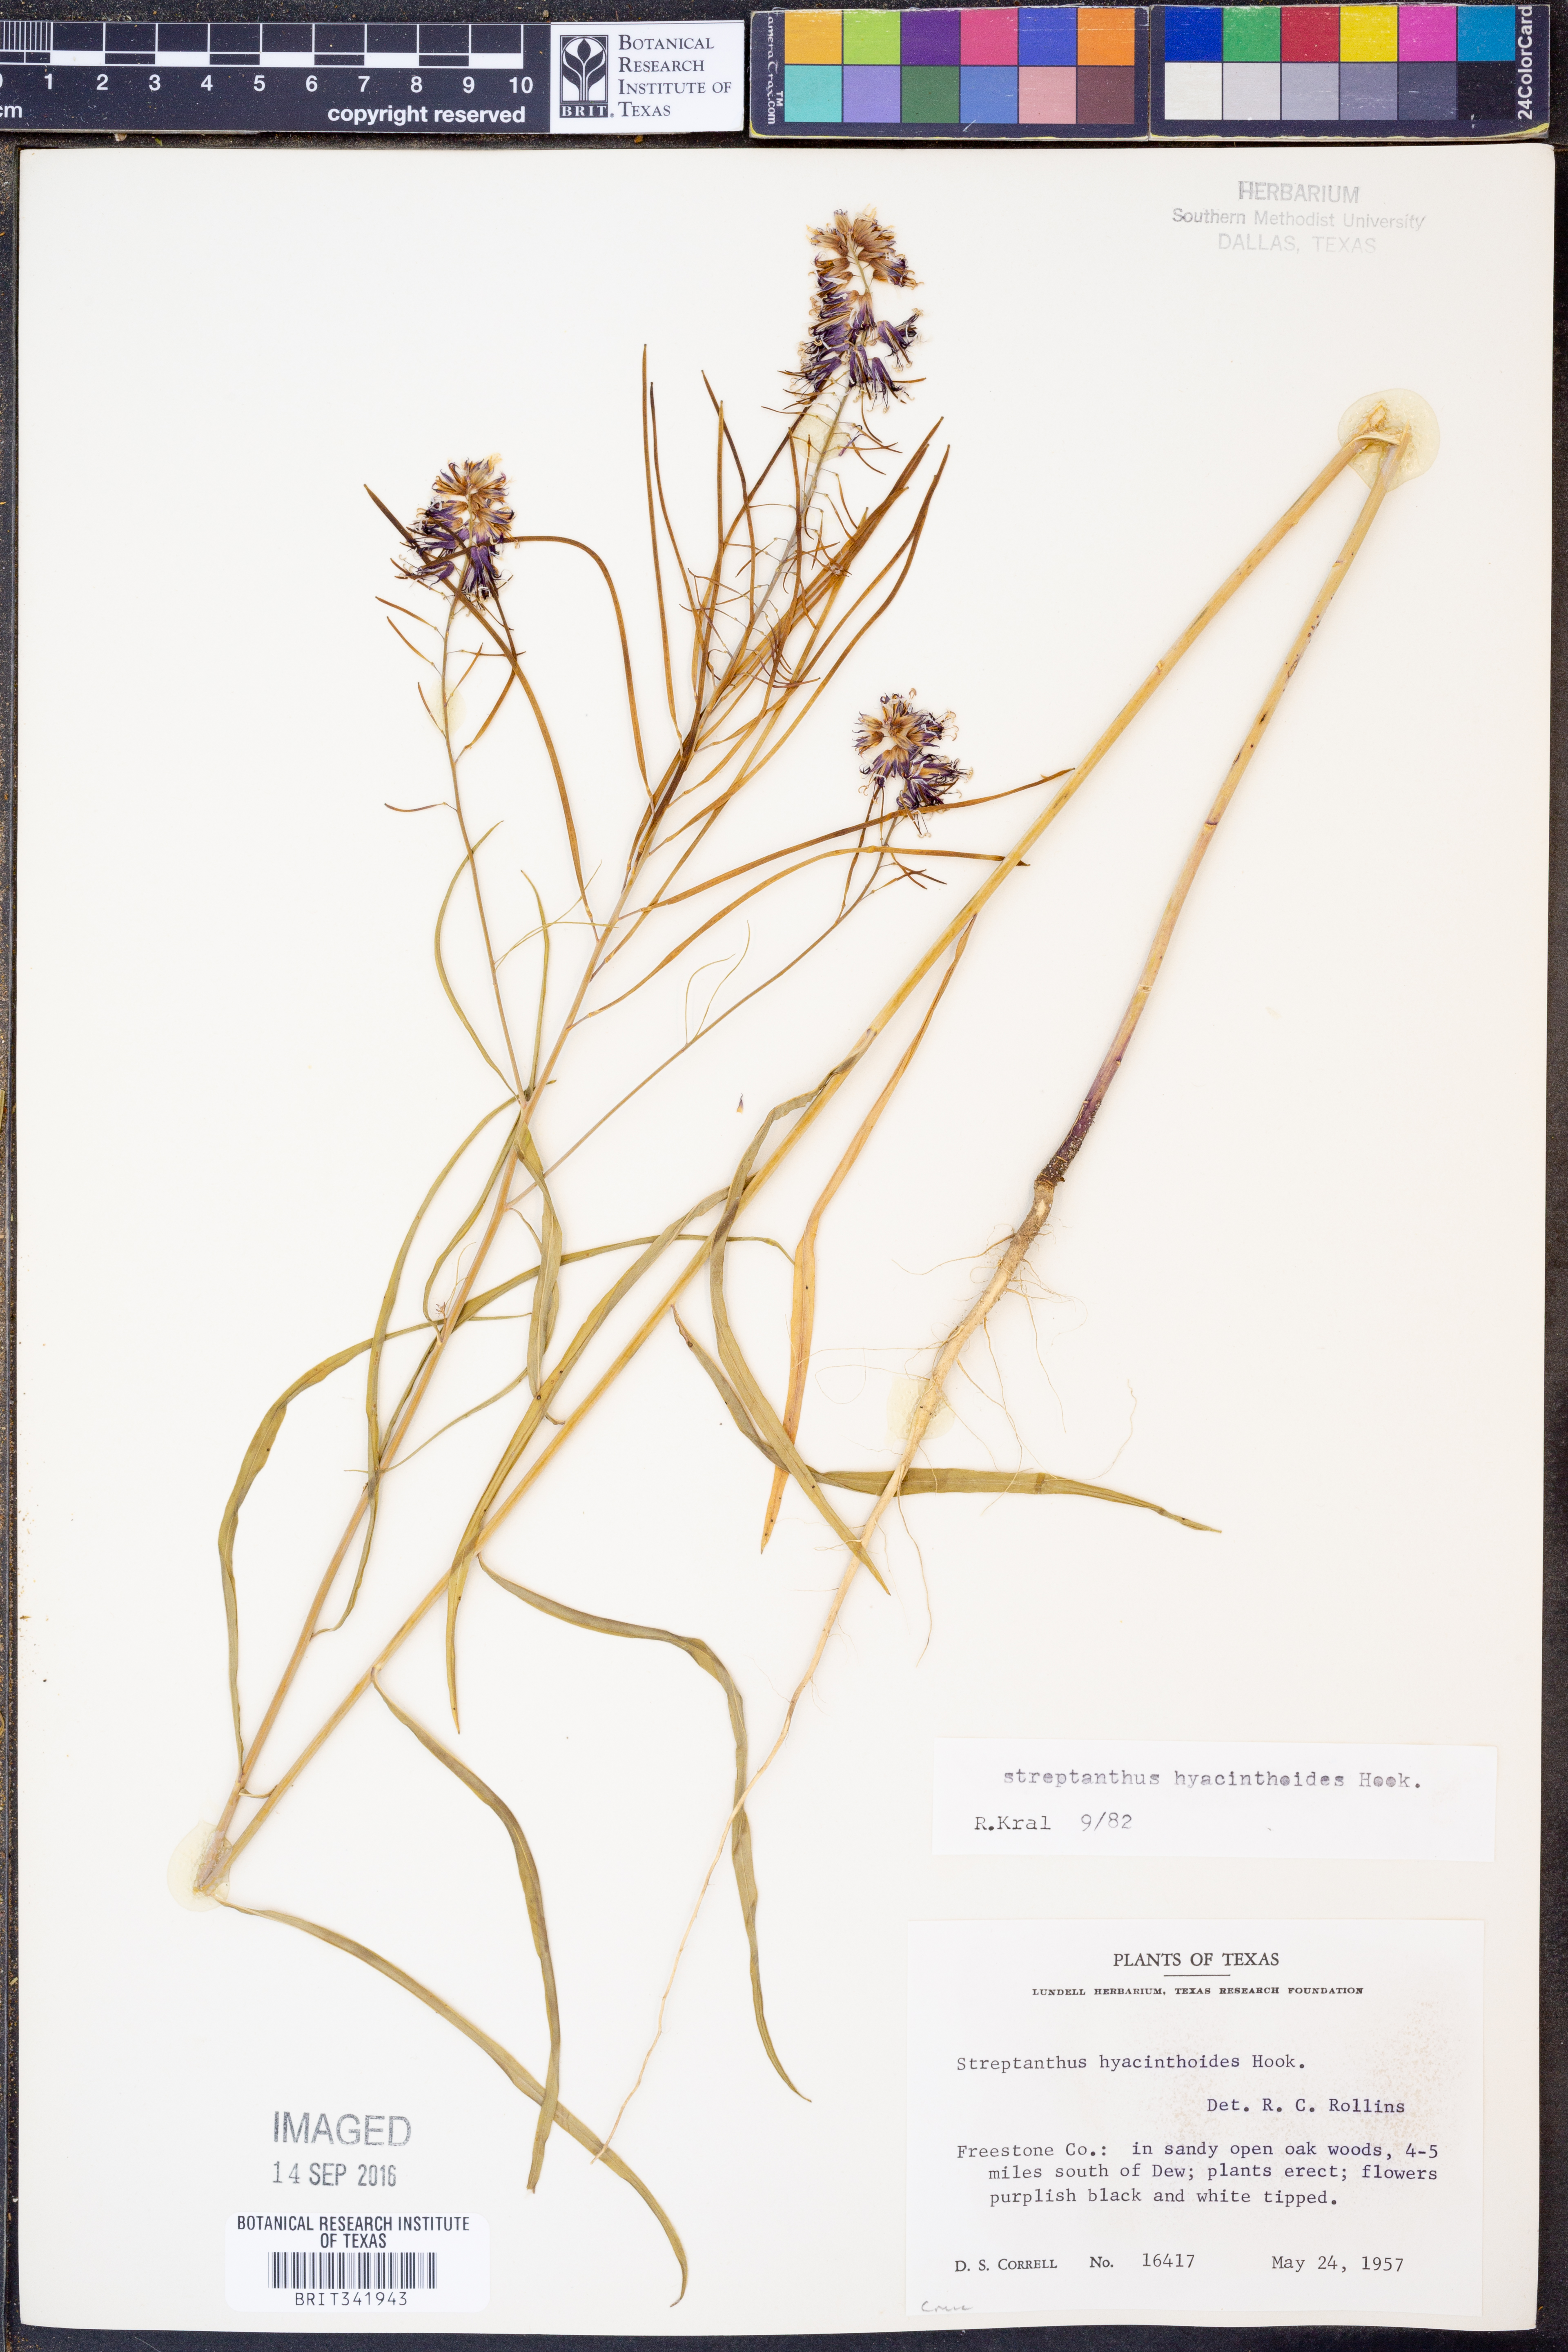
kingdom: Plantae
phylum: Tracheophyta
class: Magnoliopsida
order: Brassicales
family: Brassicaceae
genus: Streptanthus
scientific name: Streptanthus hyacinthoides
